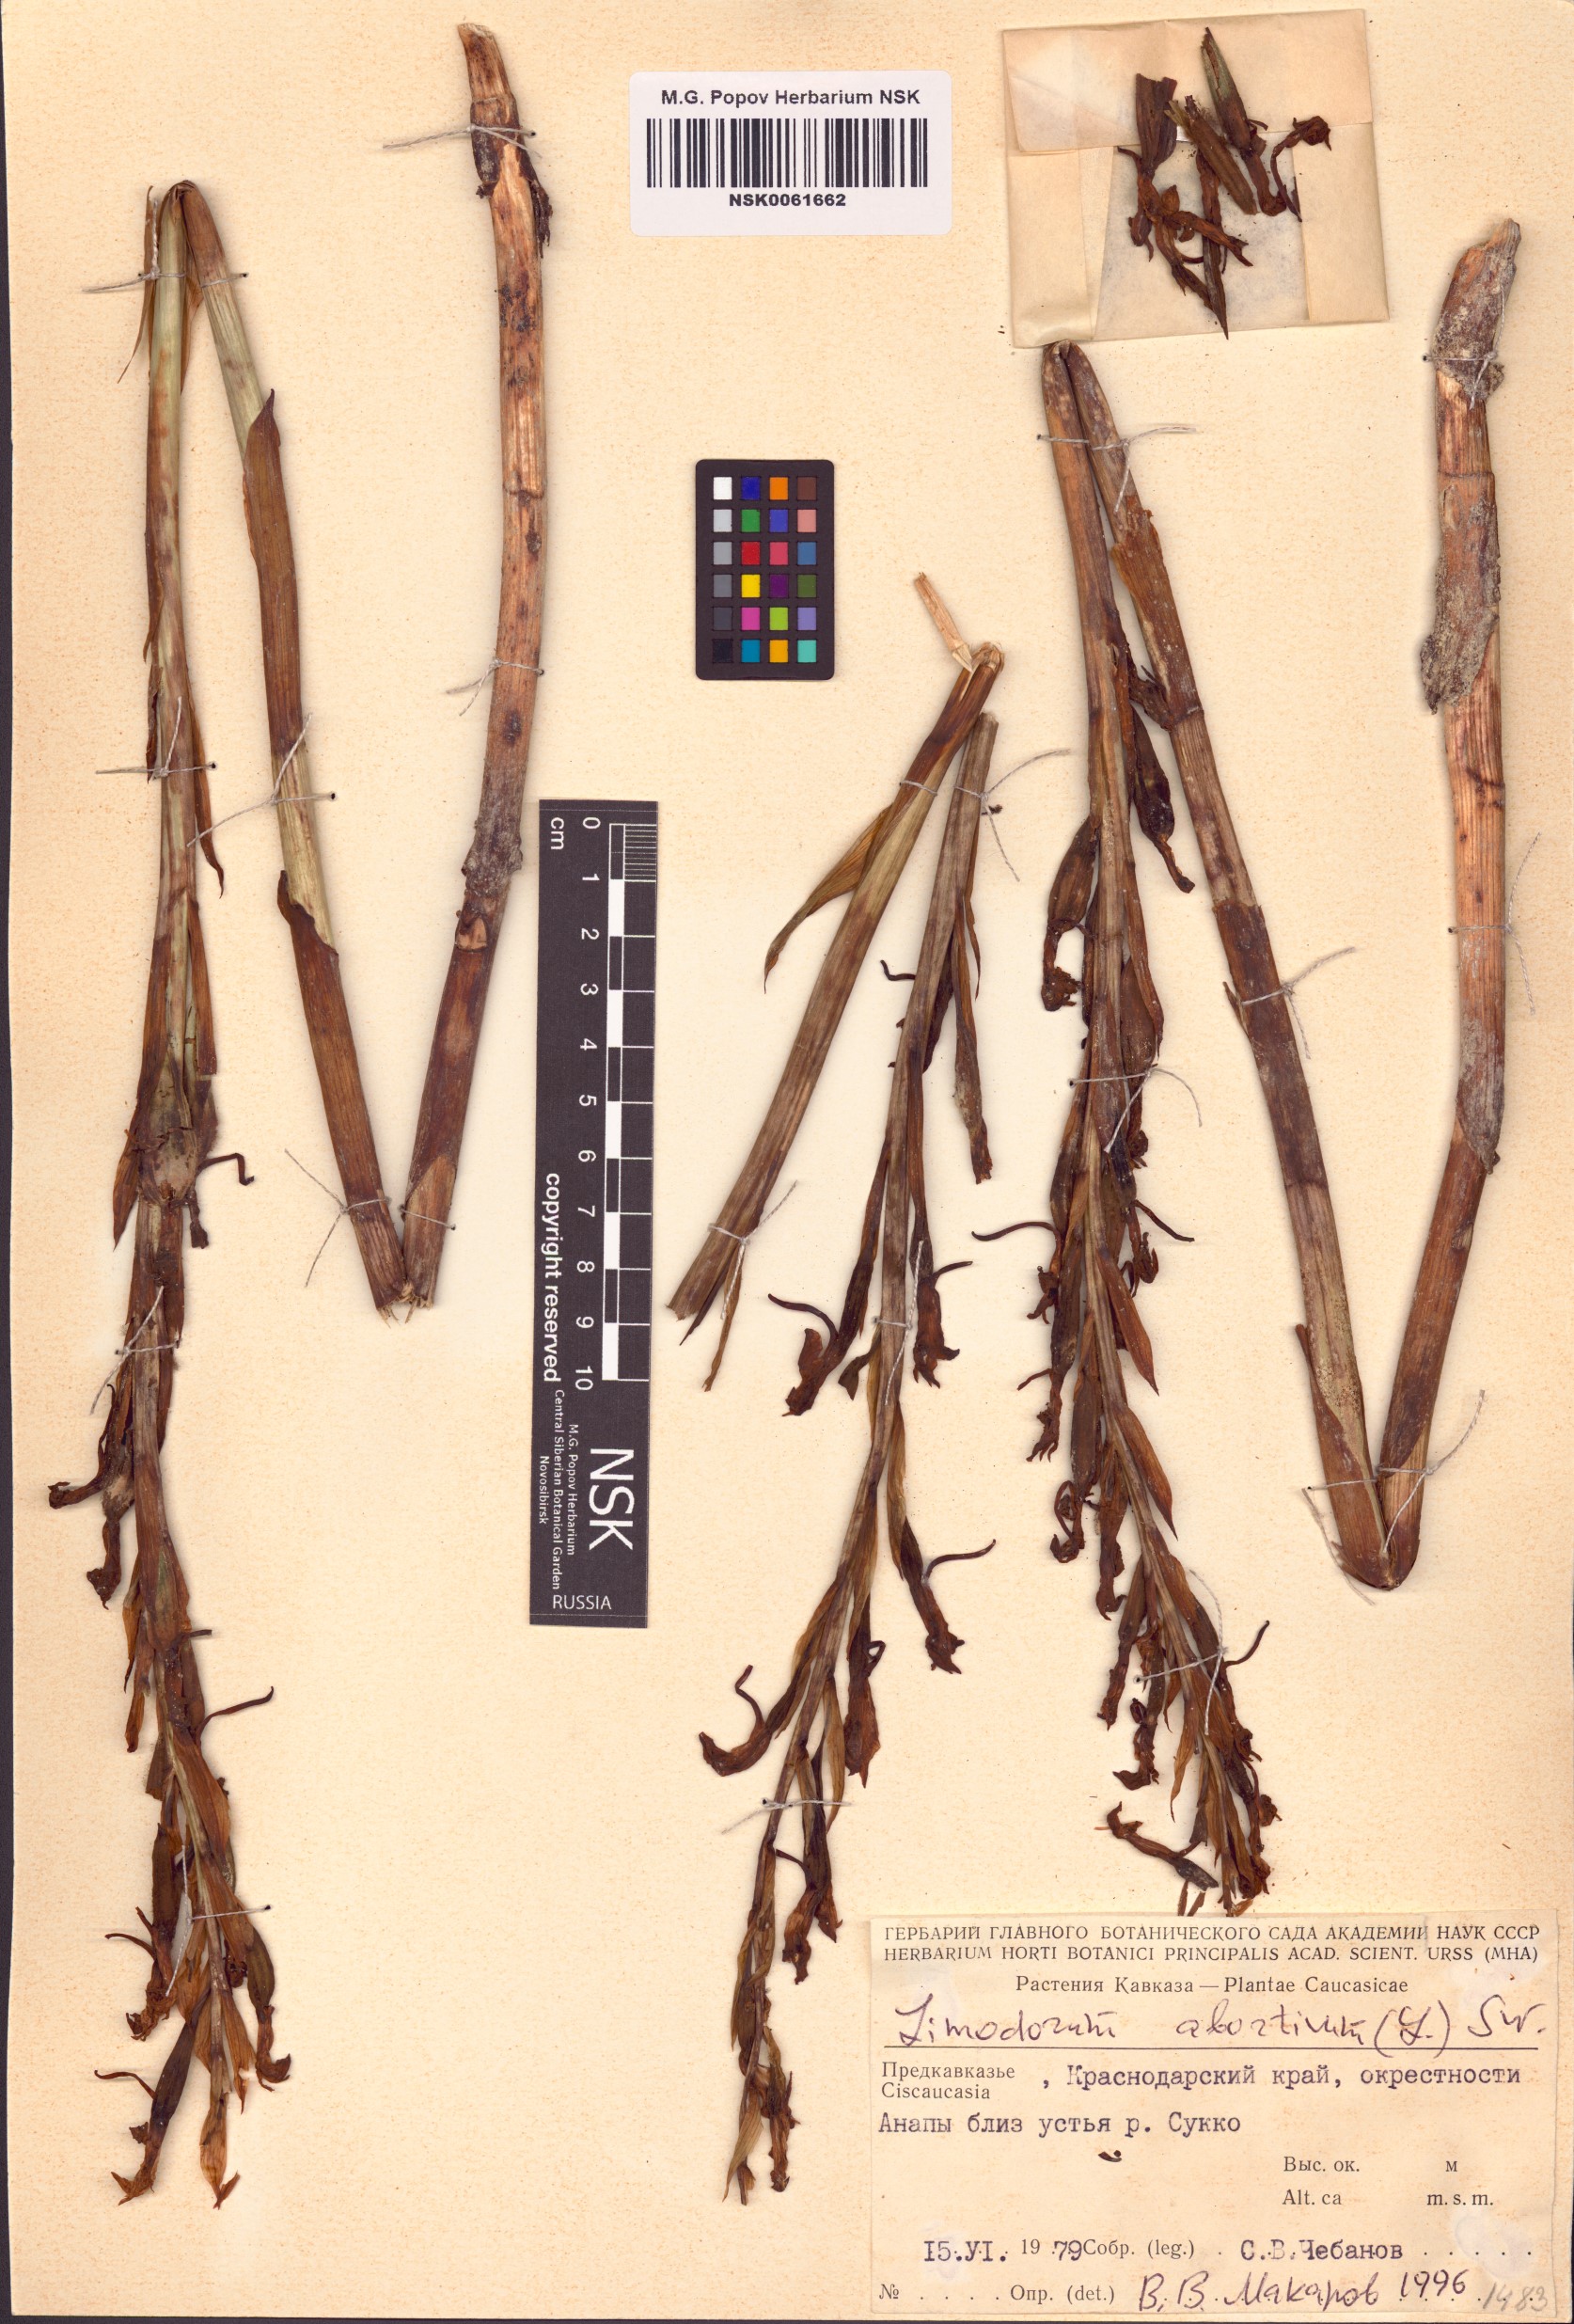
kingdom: Plantae
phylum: Tracheophyta
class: Liliopsida
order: Asparagales
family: Orchidaceae
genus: Limodorum
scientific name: Limodorum abortivum
